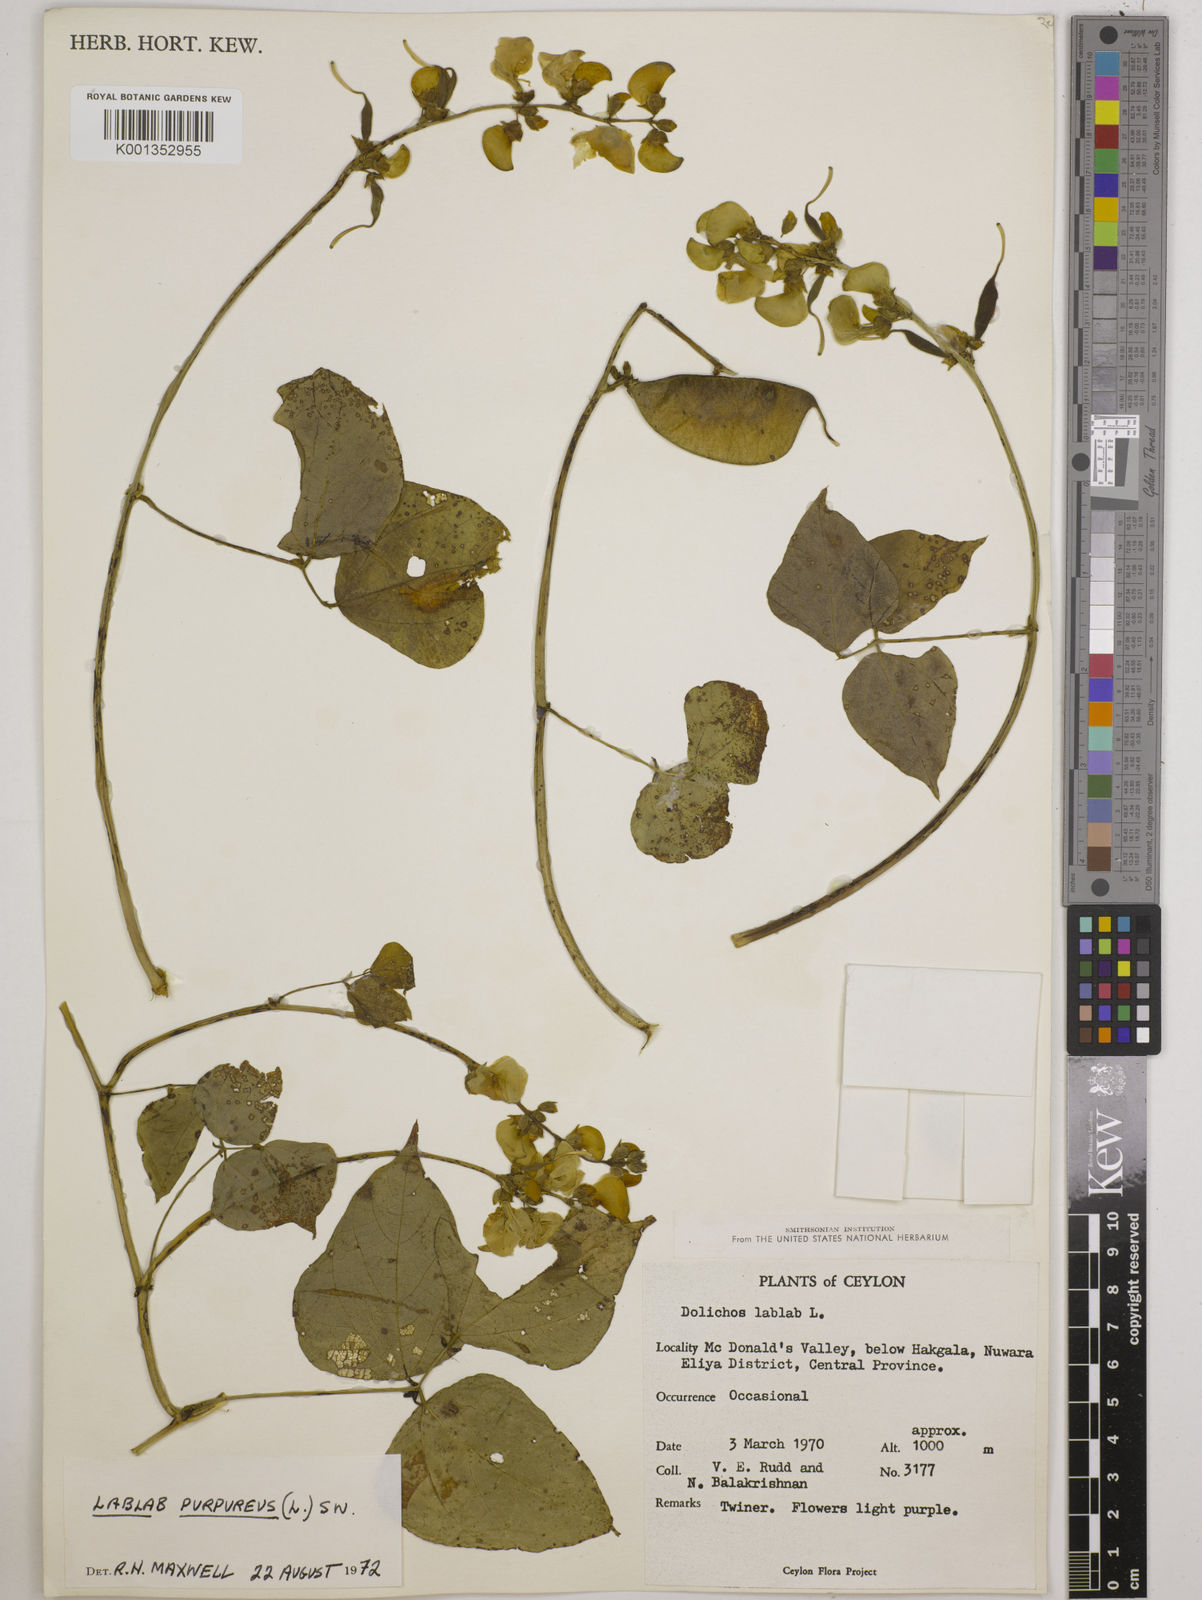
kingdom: Plantae
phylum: Tracheophyta
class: Magnoliopsida
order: Fabales
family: Fabaceae
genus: Lablab
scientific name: Lablab purpureus
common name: Lablab-bean
